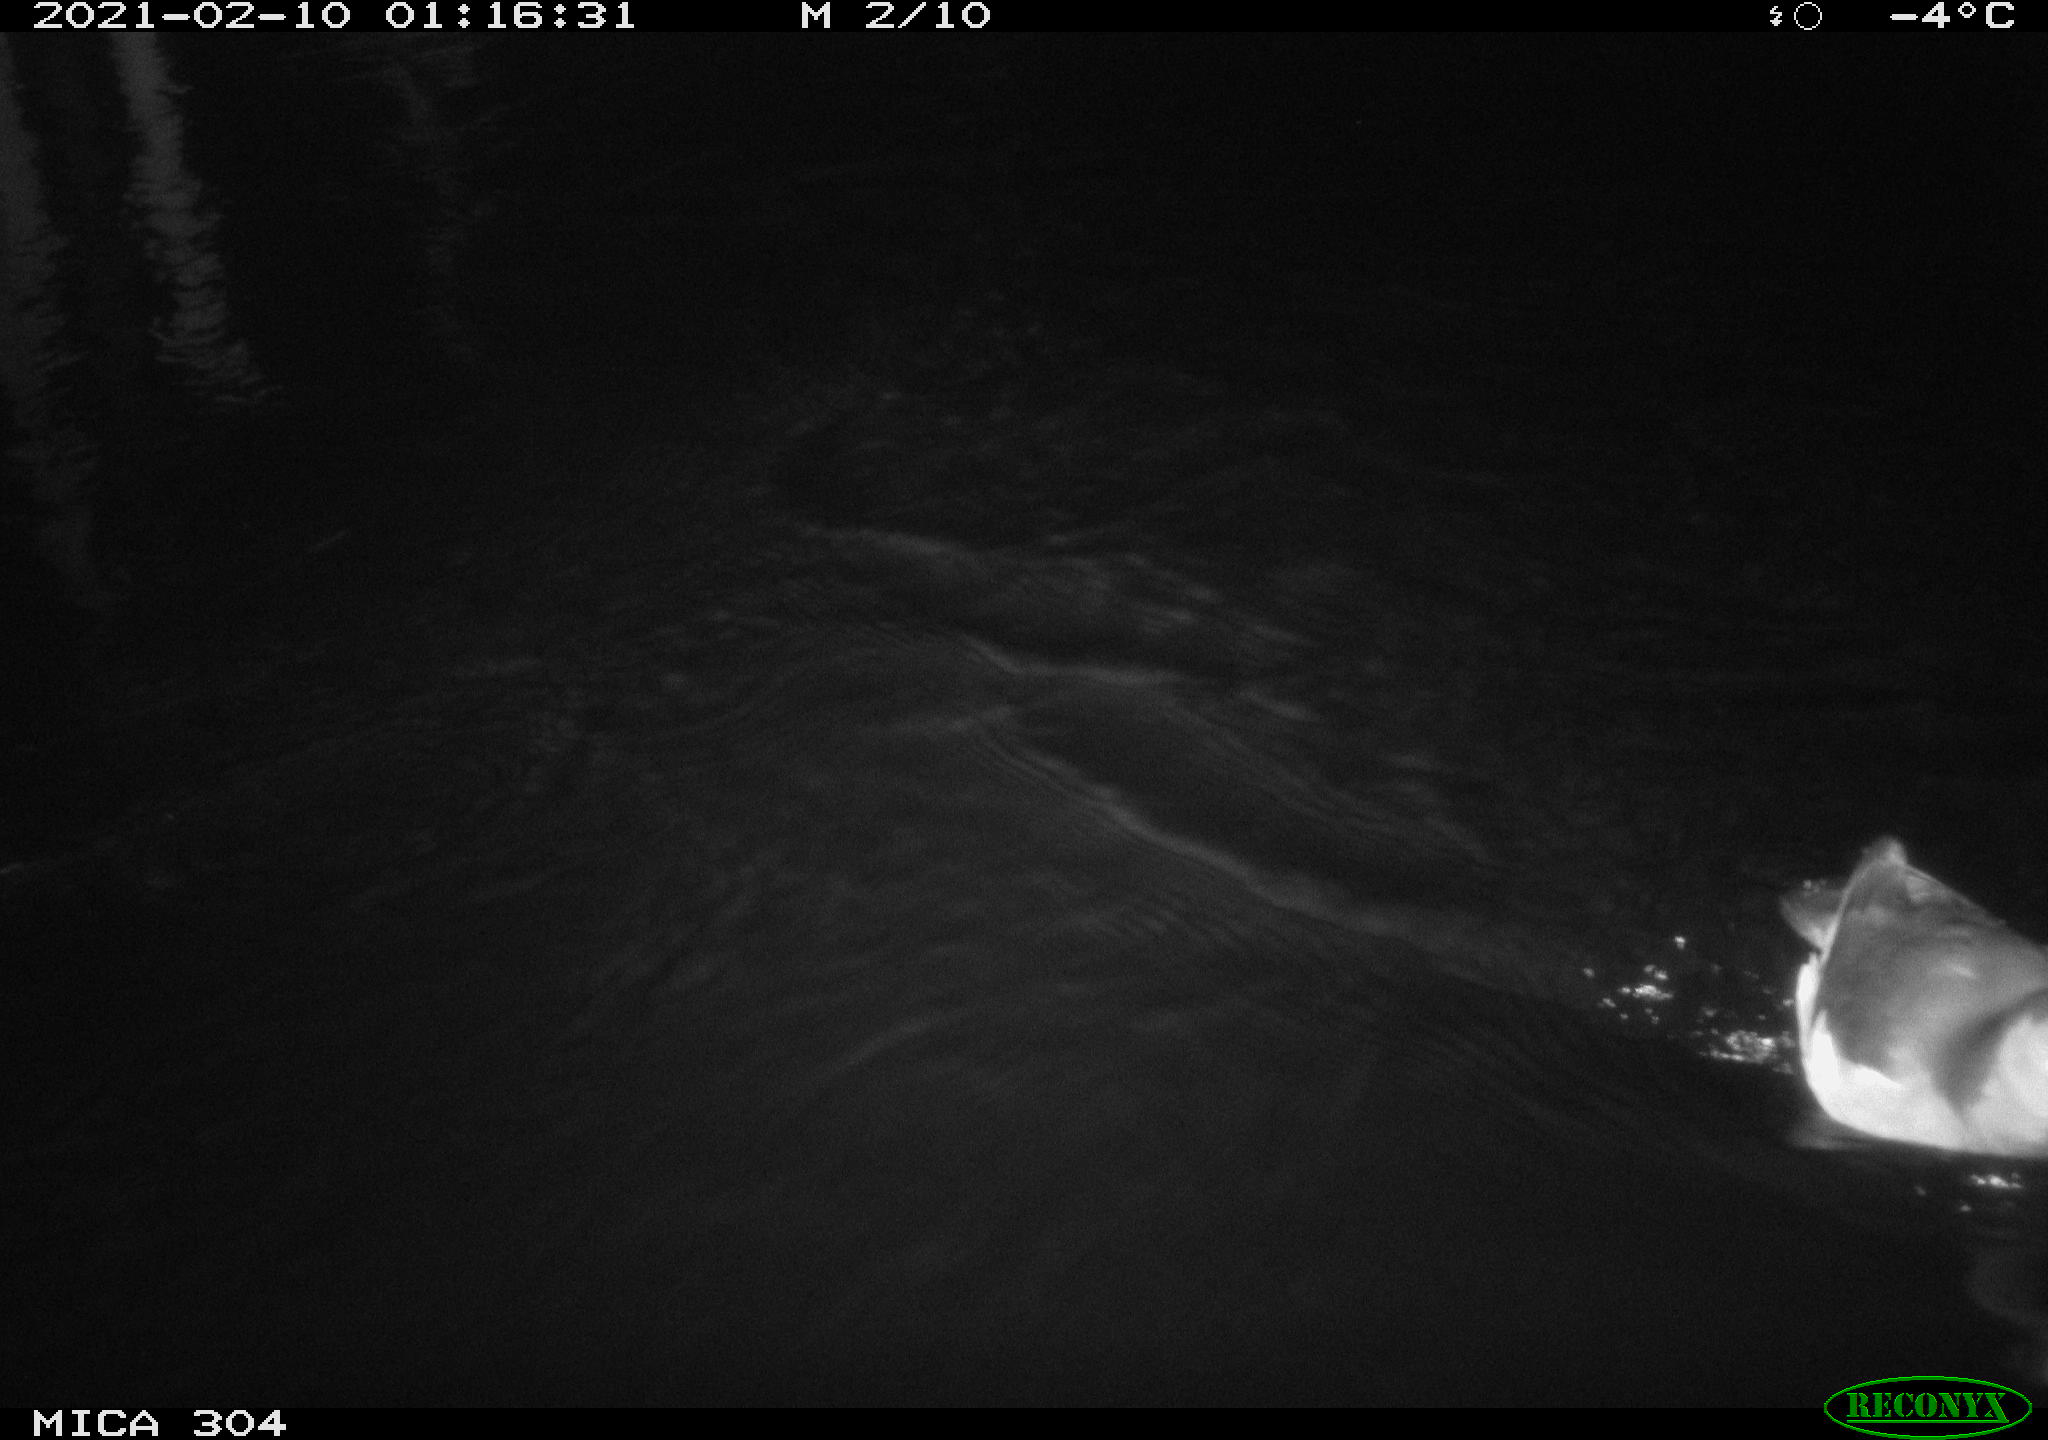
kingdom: Animalia
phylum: Chordata
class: Aves
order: Gruiformes
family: Rallidae
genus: Gallinula
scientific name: Gallinula chloropus
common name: Common moorhen
